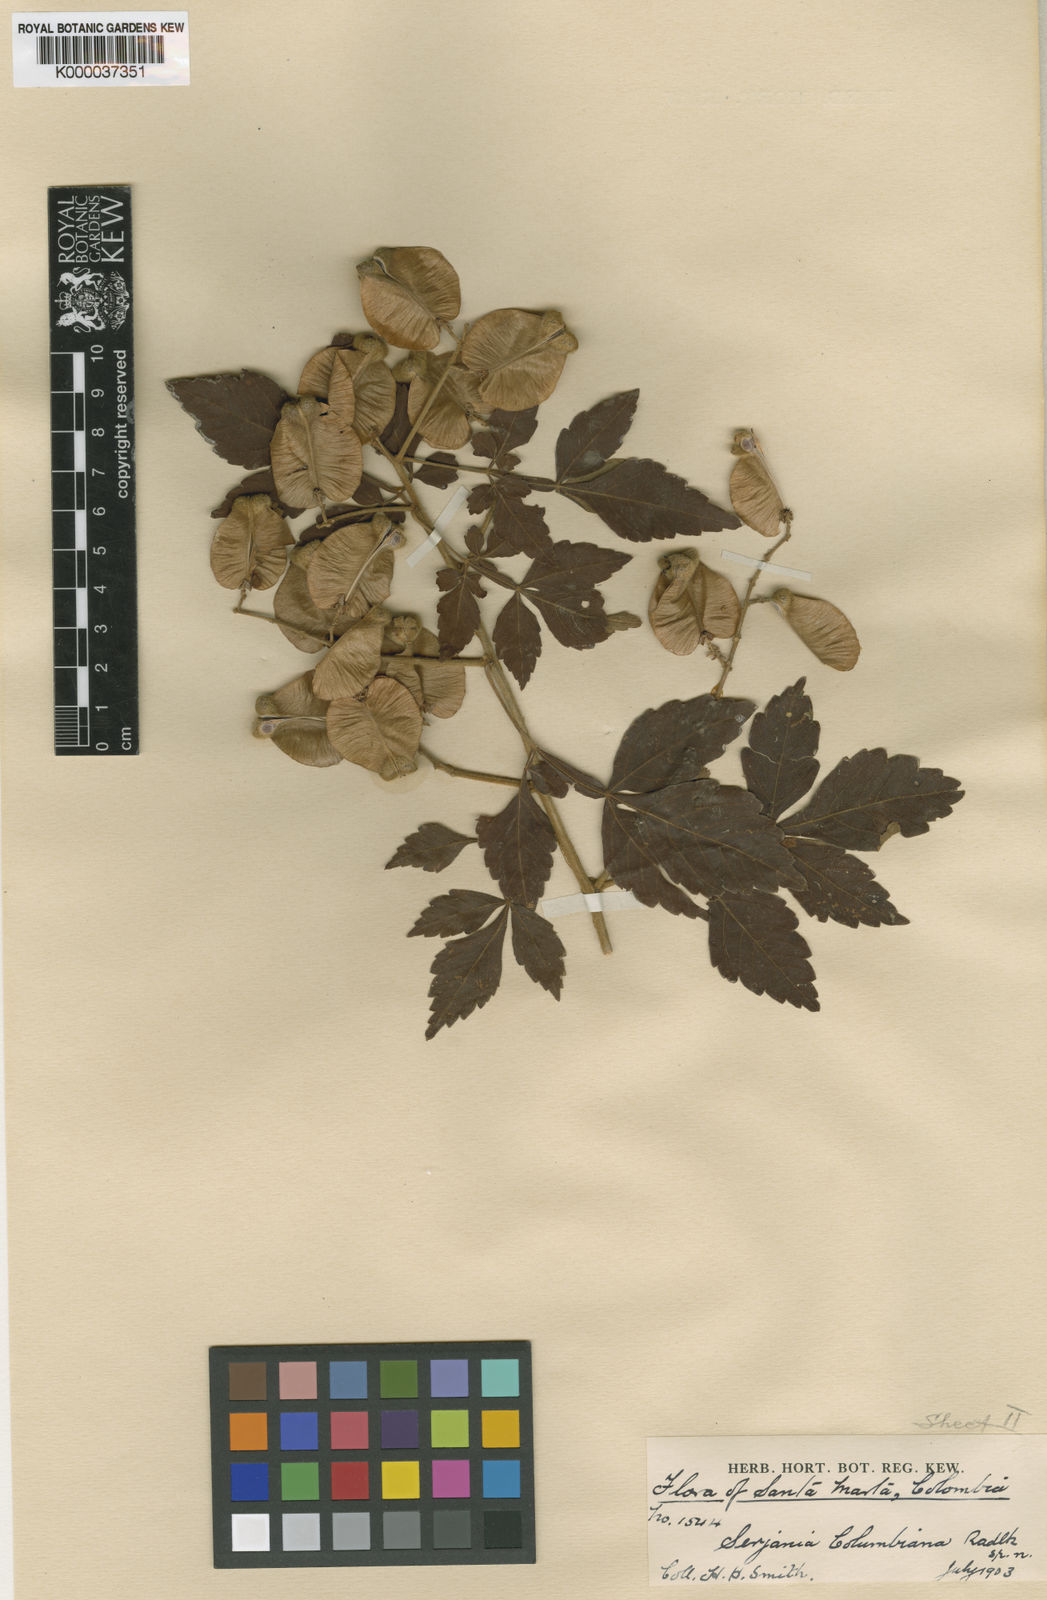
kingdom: Plantae
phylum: Tracheophyta
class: Magnoliopsida
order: Sapindales
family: Sapindaceae
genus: Serjania
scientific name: Serjania columbiana
